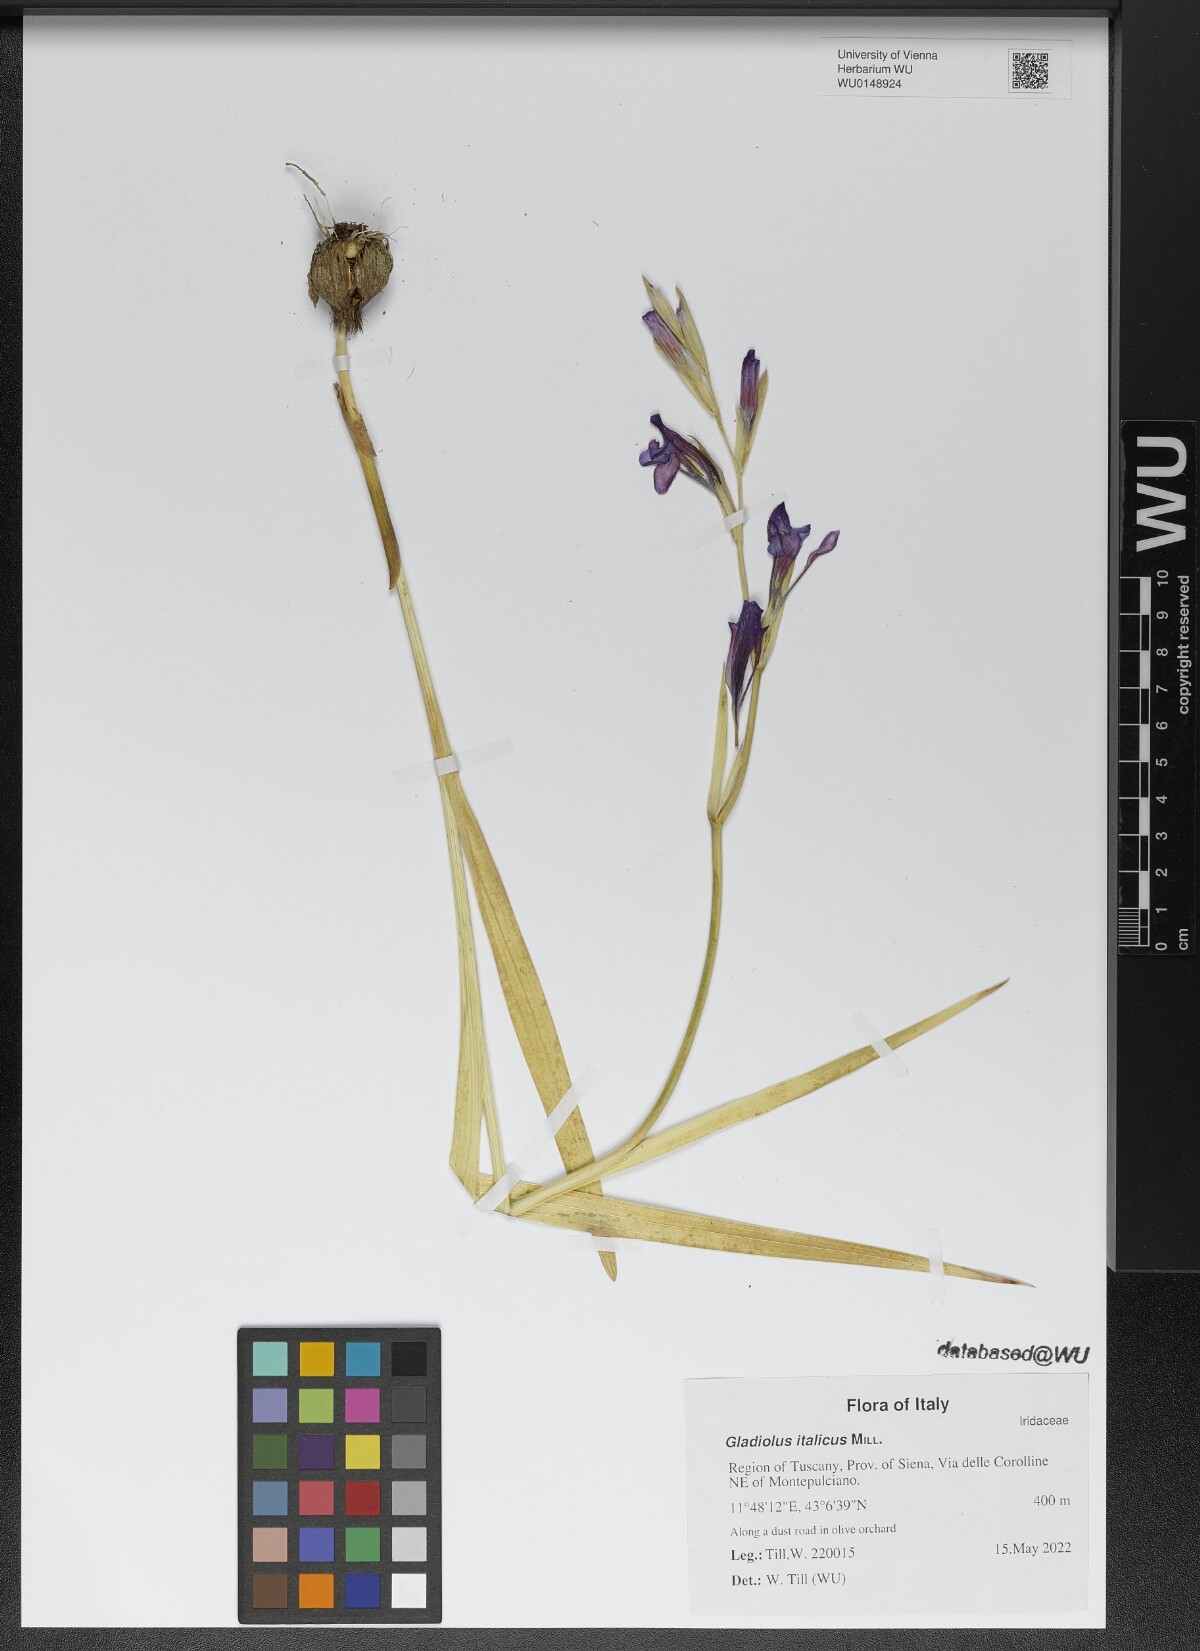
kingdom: Plantae
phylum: Tracheophyta
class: Liliopsida
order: Asparagales
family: Iridaceae
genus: Gladiolus
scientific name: Gladiolus italicus
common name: Field gladiolus
